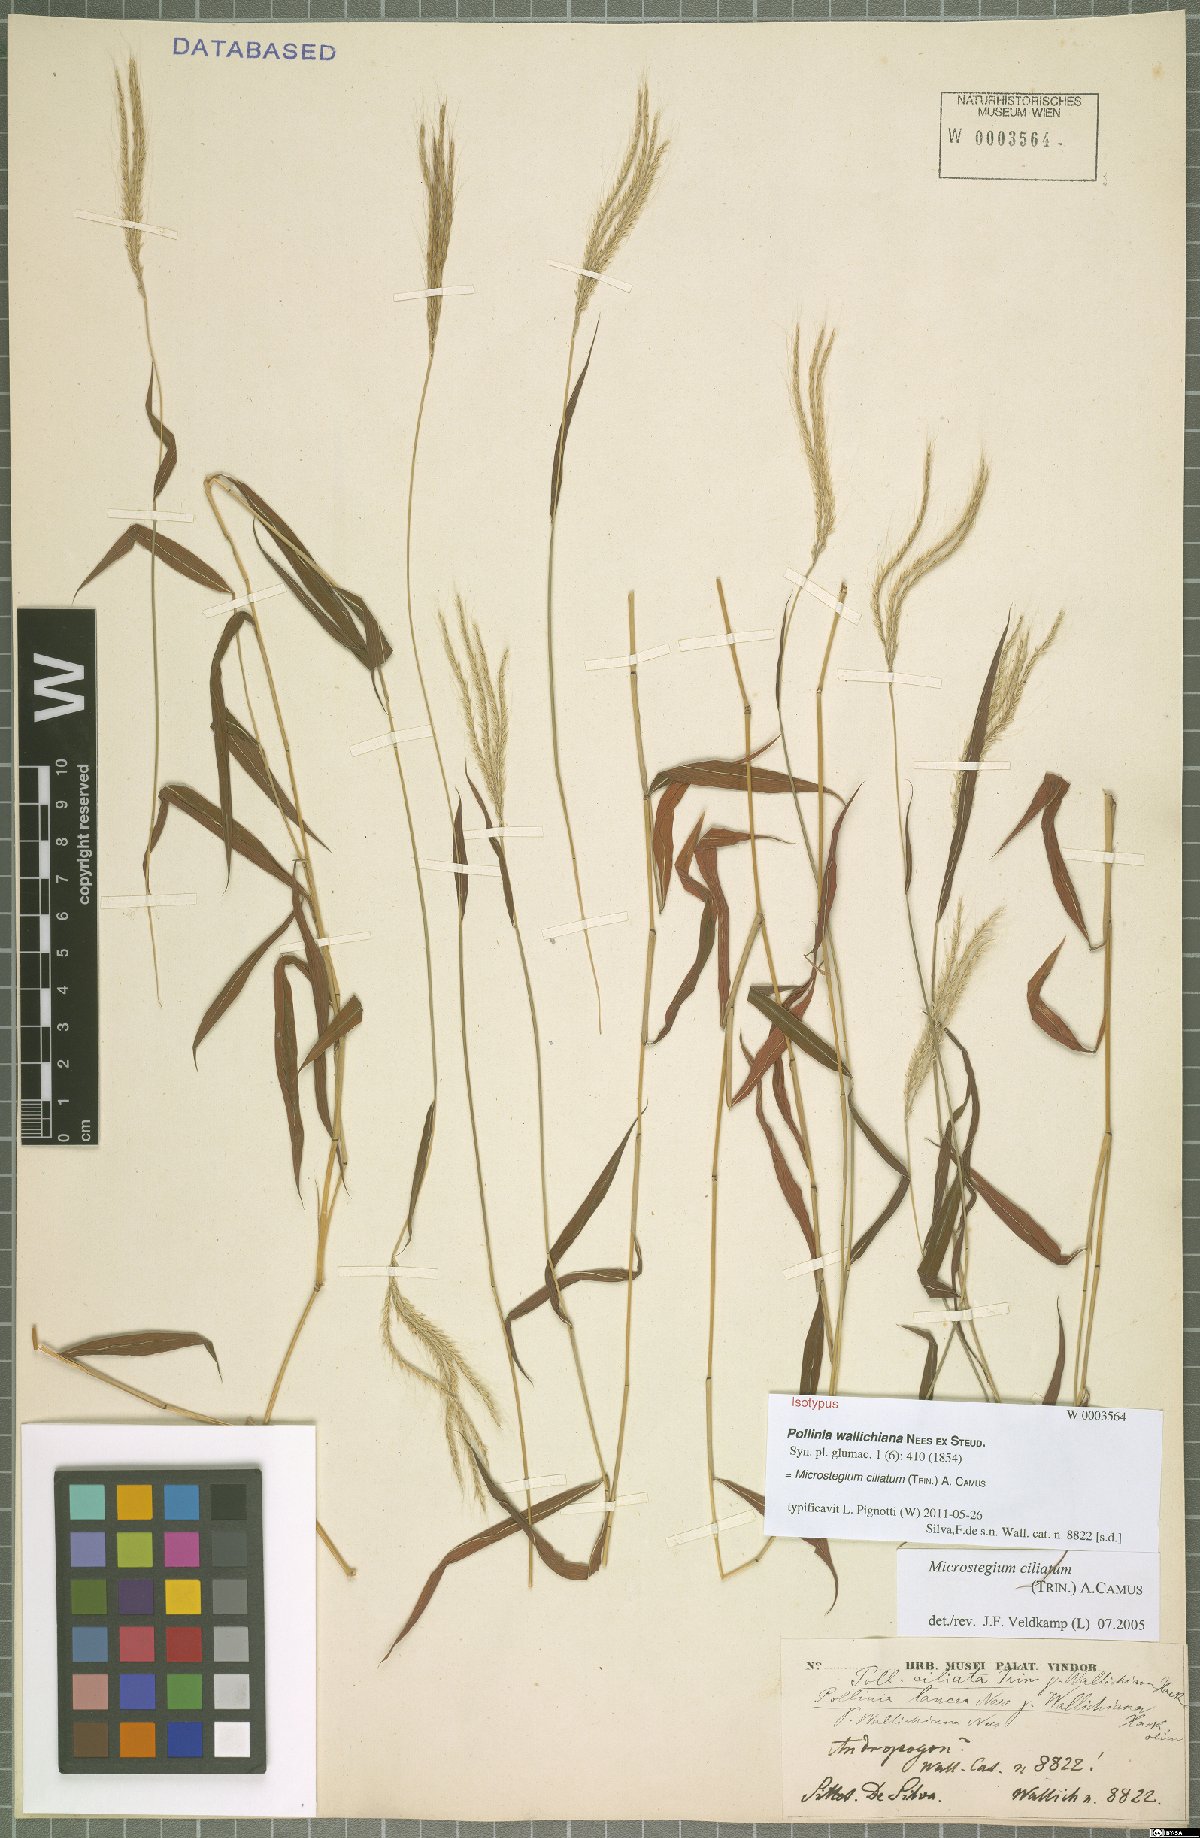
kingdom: Plantae
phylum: Tracheophyta
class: Liliopsida
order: Poales
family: Poaceae
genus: Microstegium
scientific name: Microstegium fasciculatum
